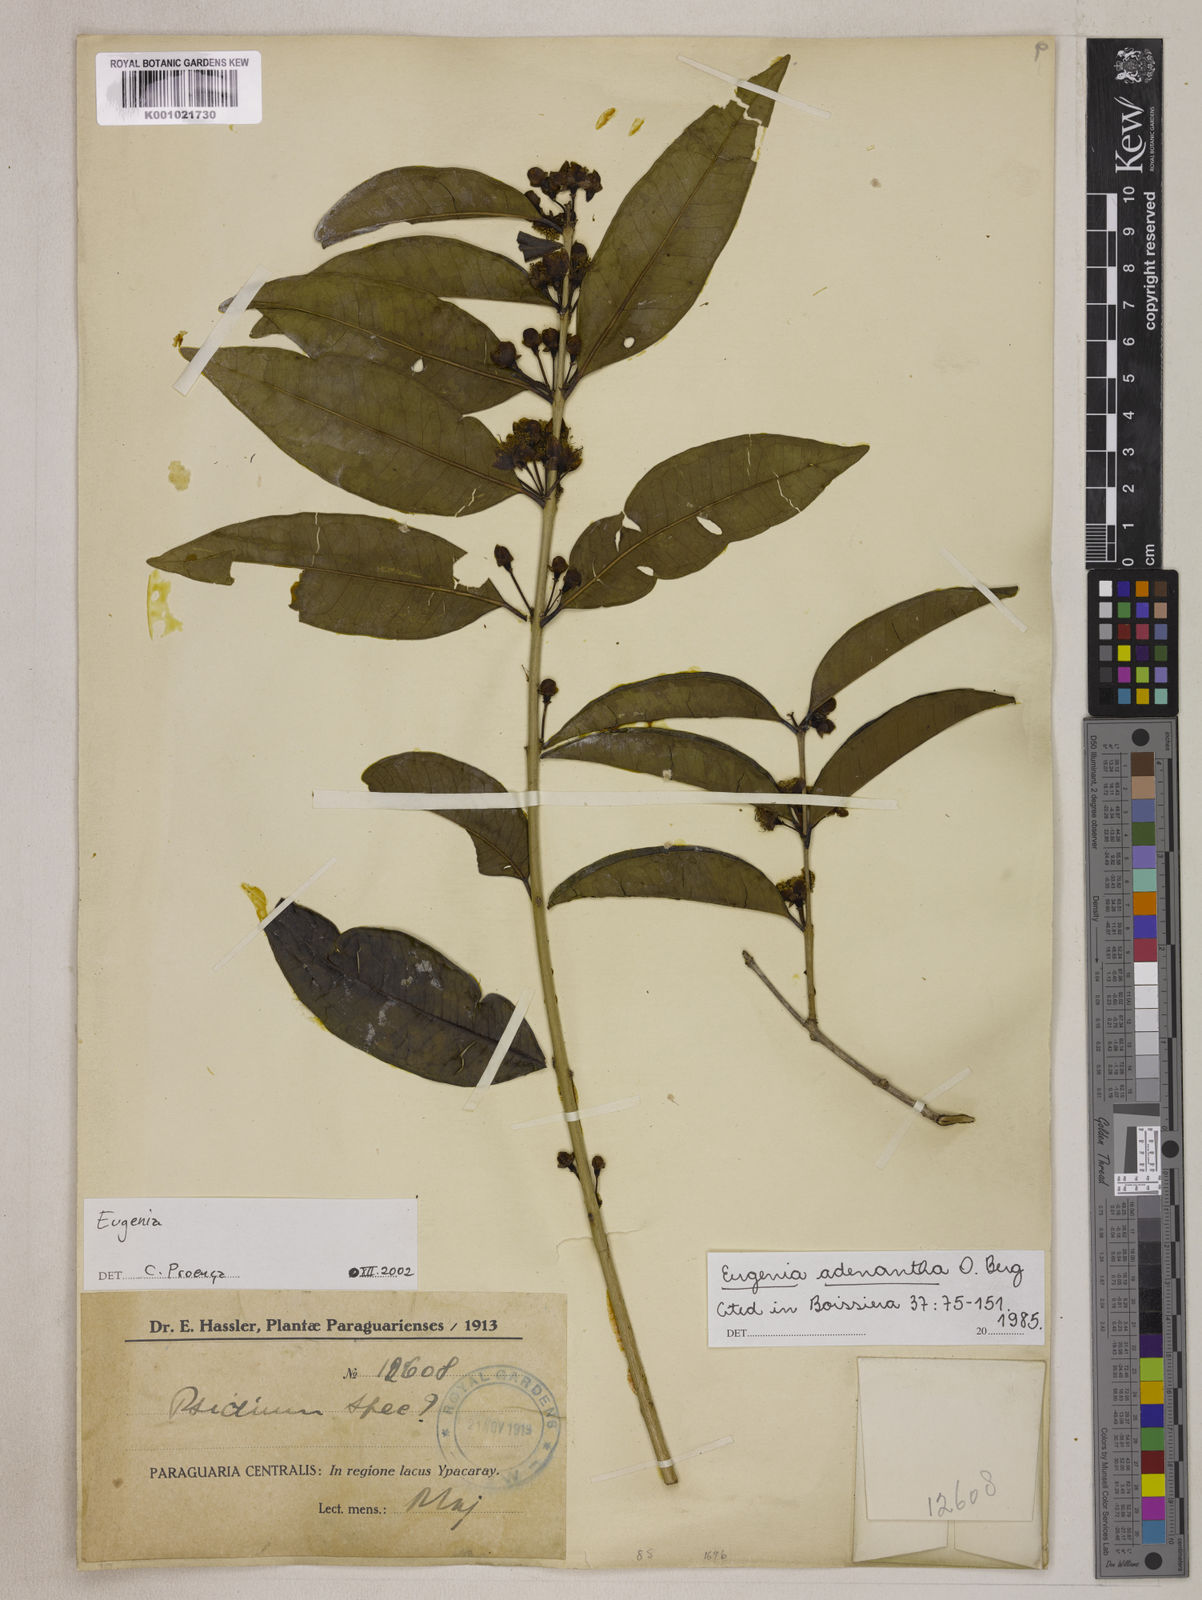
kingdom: Plantae
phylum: Tracheophyta
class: Magnoliopsida
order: Myrtales
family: Myrtaceae
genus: Eugenia
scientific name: Eugenia adenantha
